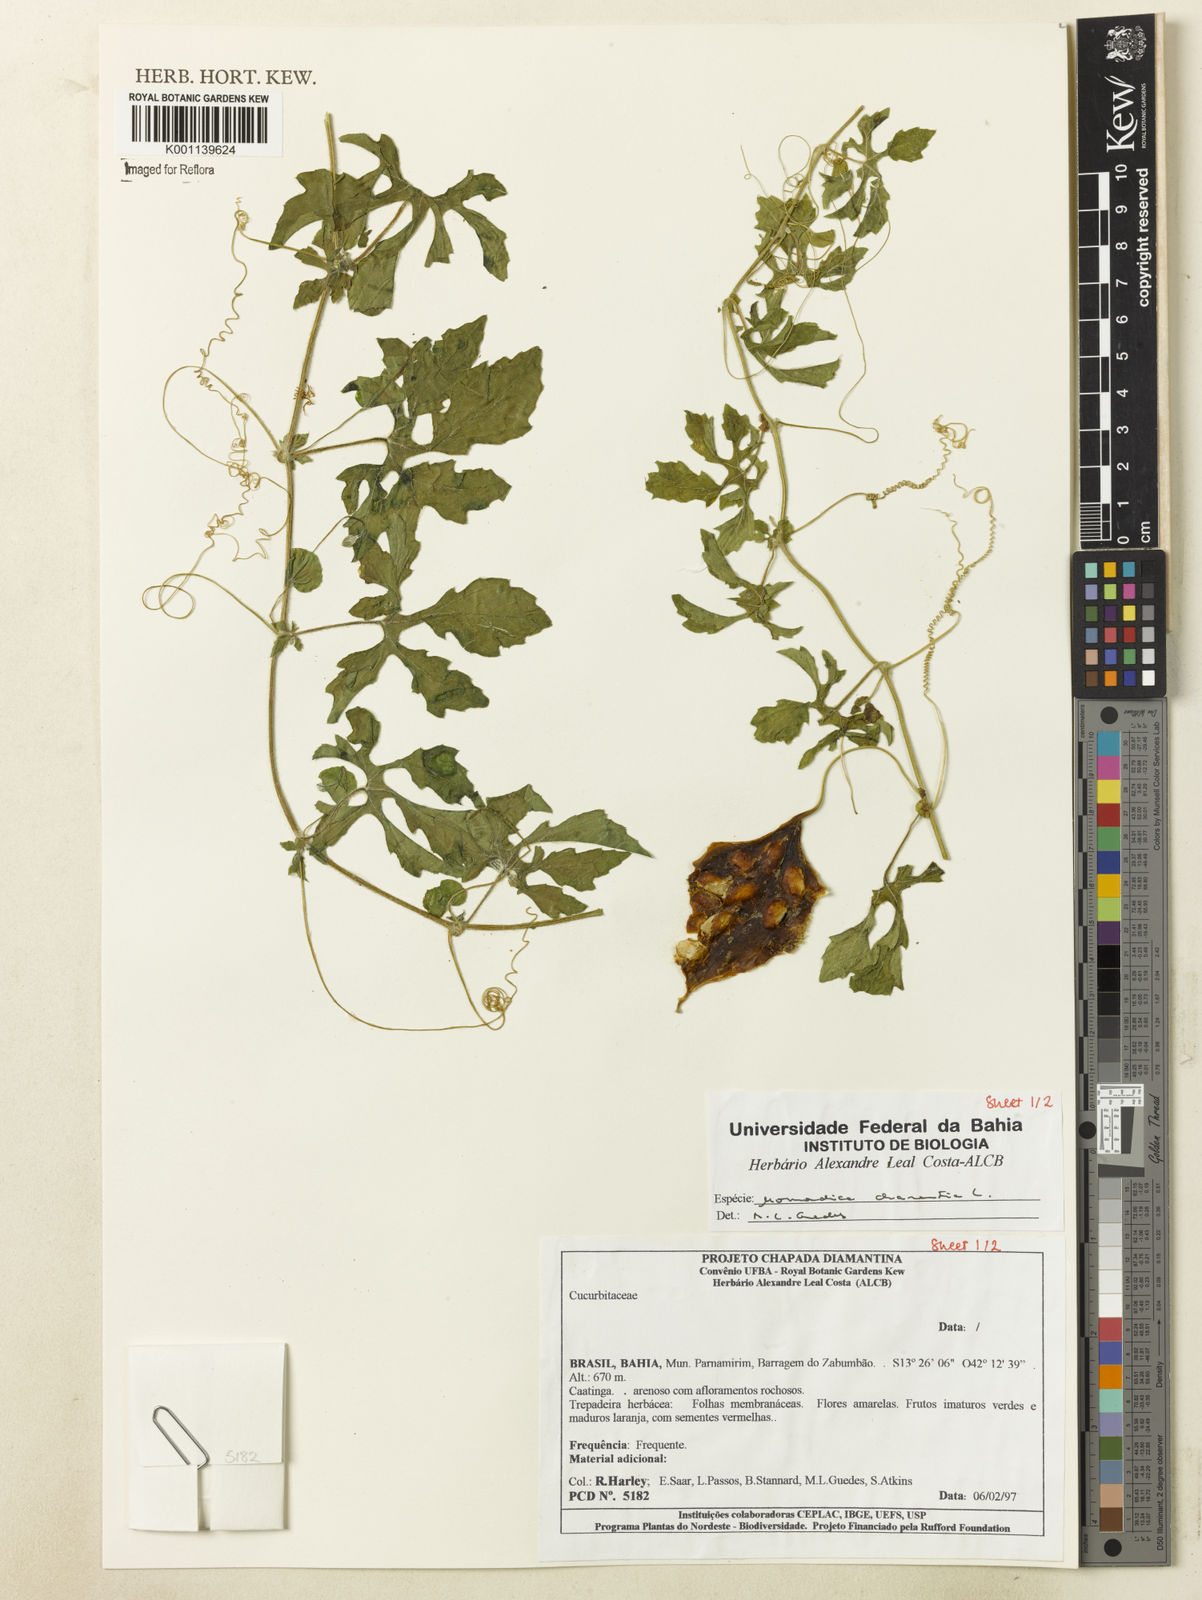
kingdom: Plantae
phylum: Tracheophyta
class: Magnoliopsida
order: Cucurbitales
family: Cucurbitaceae
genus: Momordica
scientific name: Momordica charantia
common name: Balsampear
